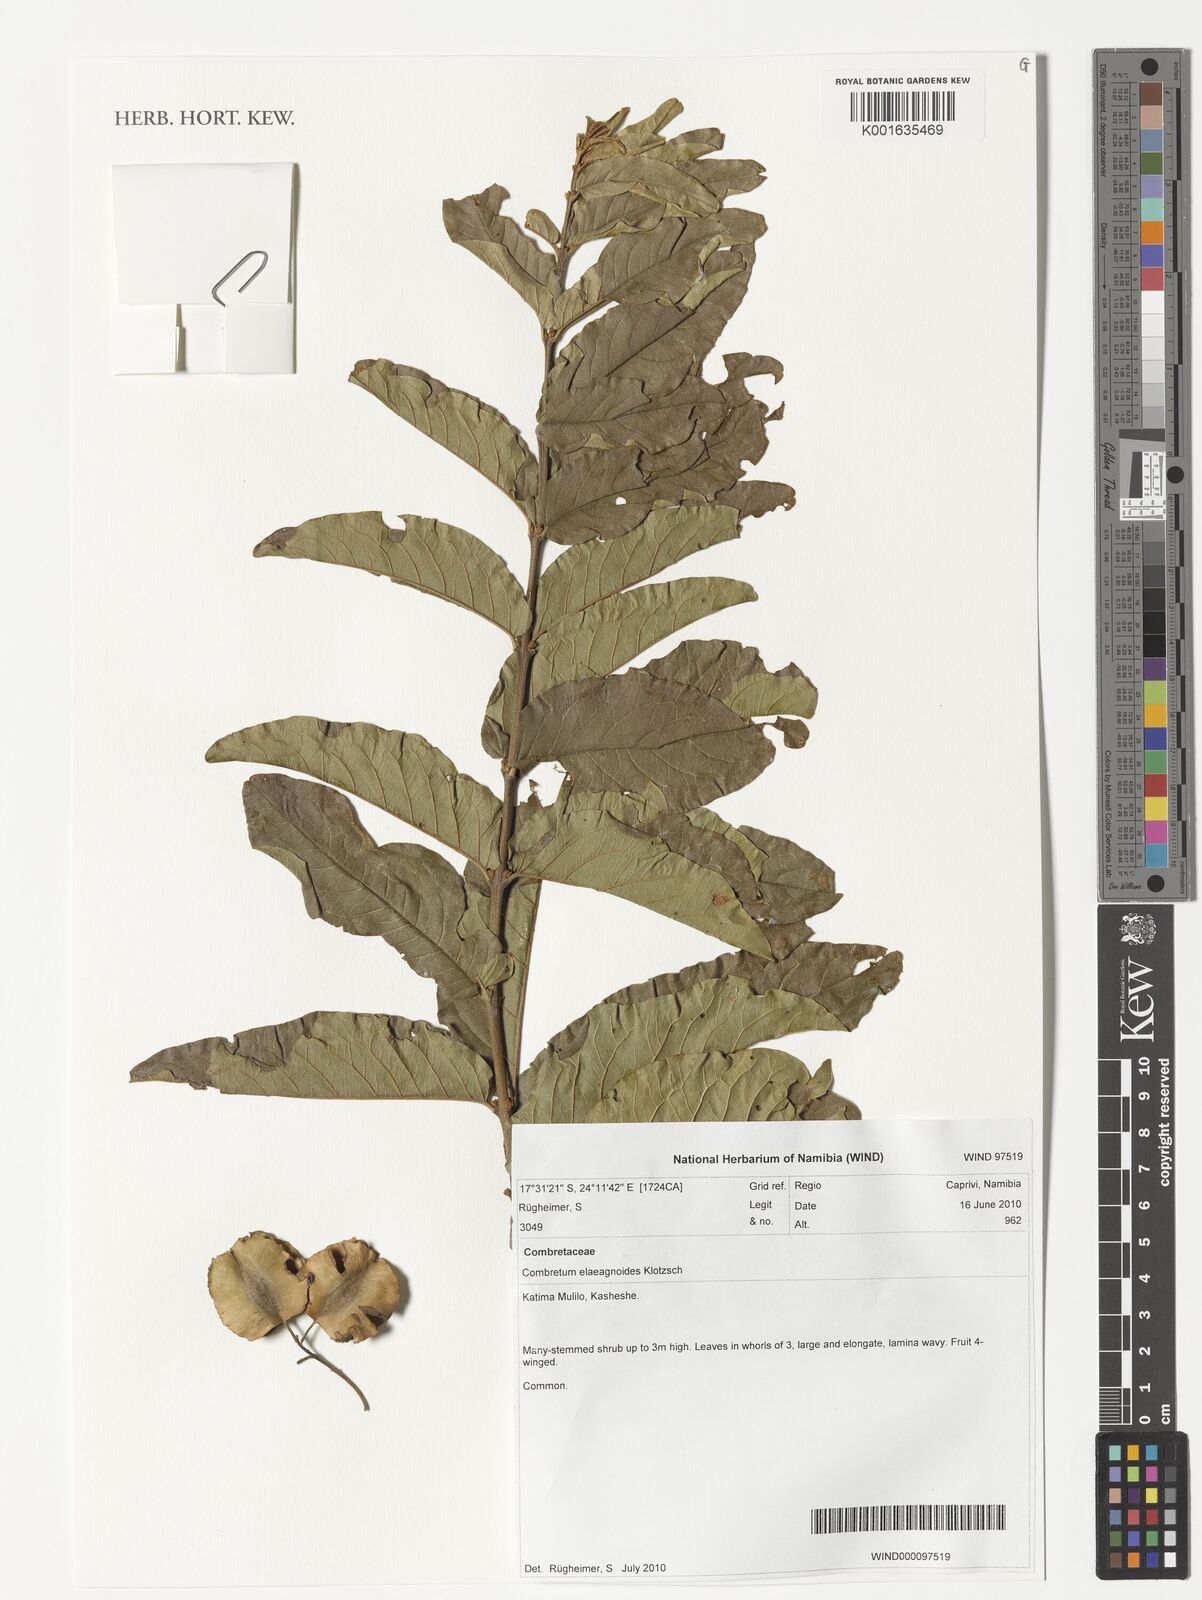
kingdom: Plantae
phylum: Tracheophyta
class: Magnoliopsida
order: Myrtales
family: Combretaceae
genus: Combretum
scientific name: Combretum elaeagnoides
